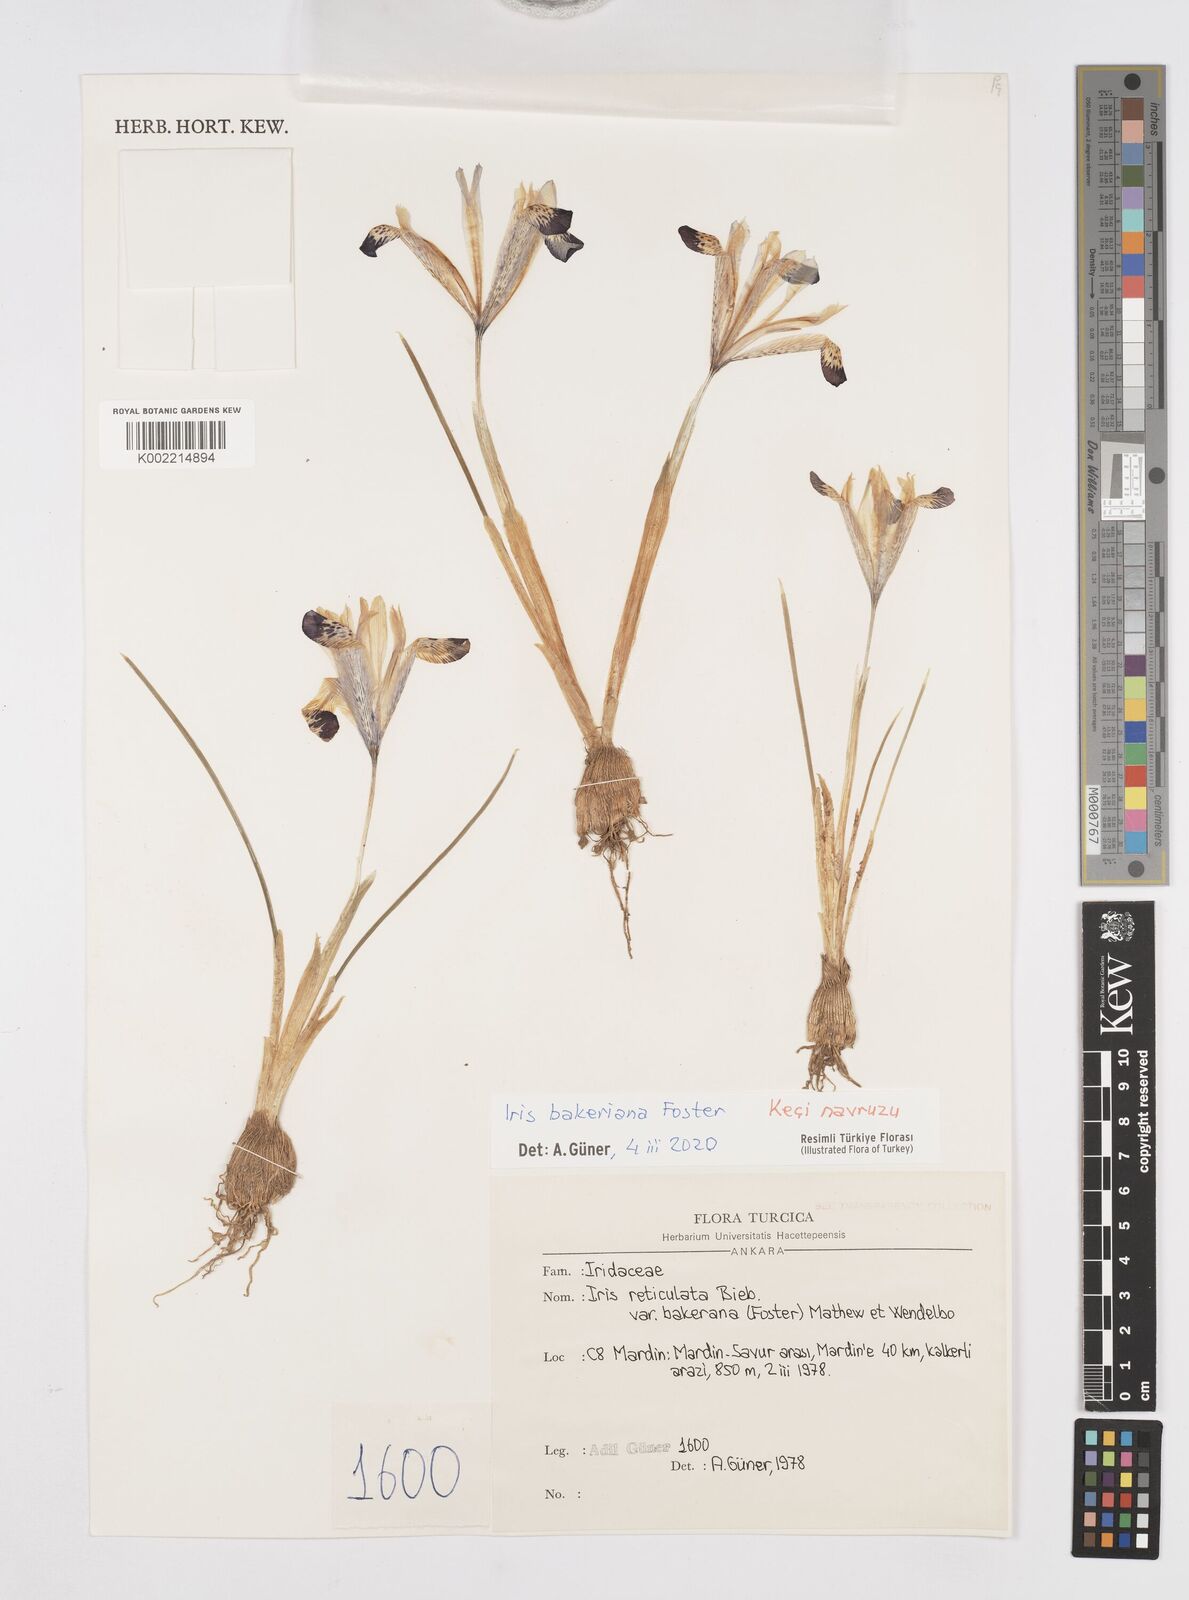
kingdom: Plantae
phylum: Tracheophyta
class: Liliopsida
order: Asparagales
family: Iridaceae
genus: Iris
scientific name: Iris reticulata
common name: Netted iris
